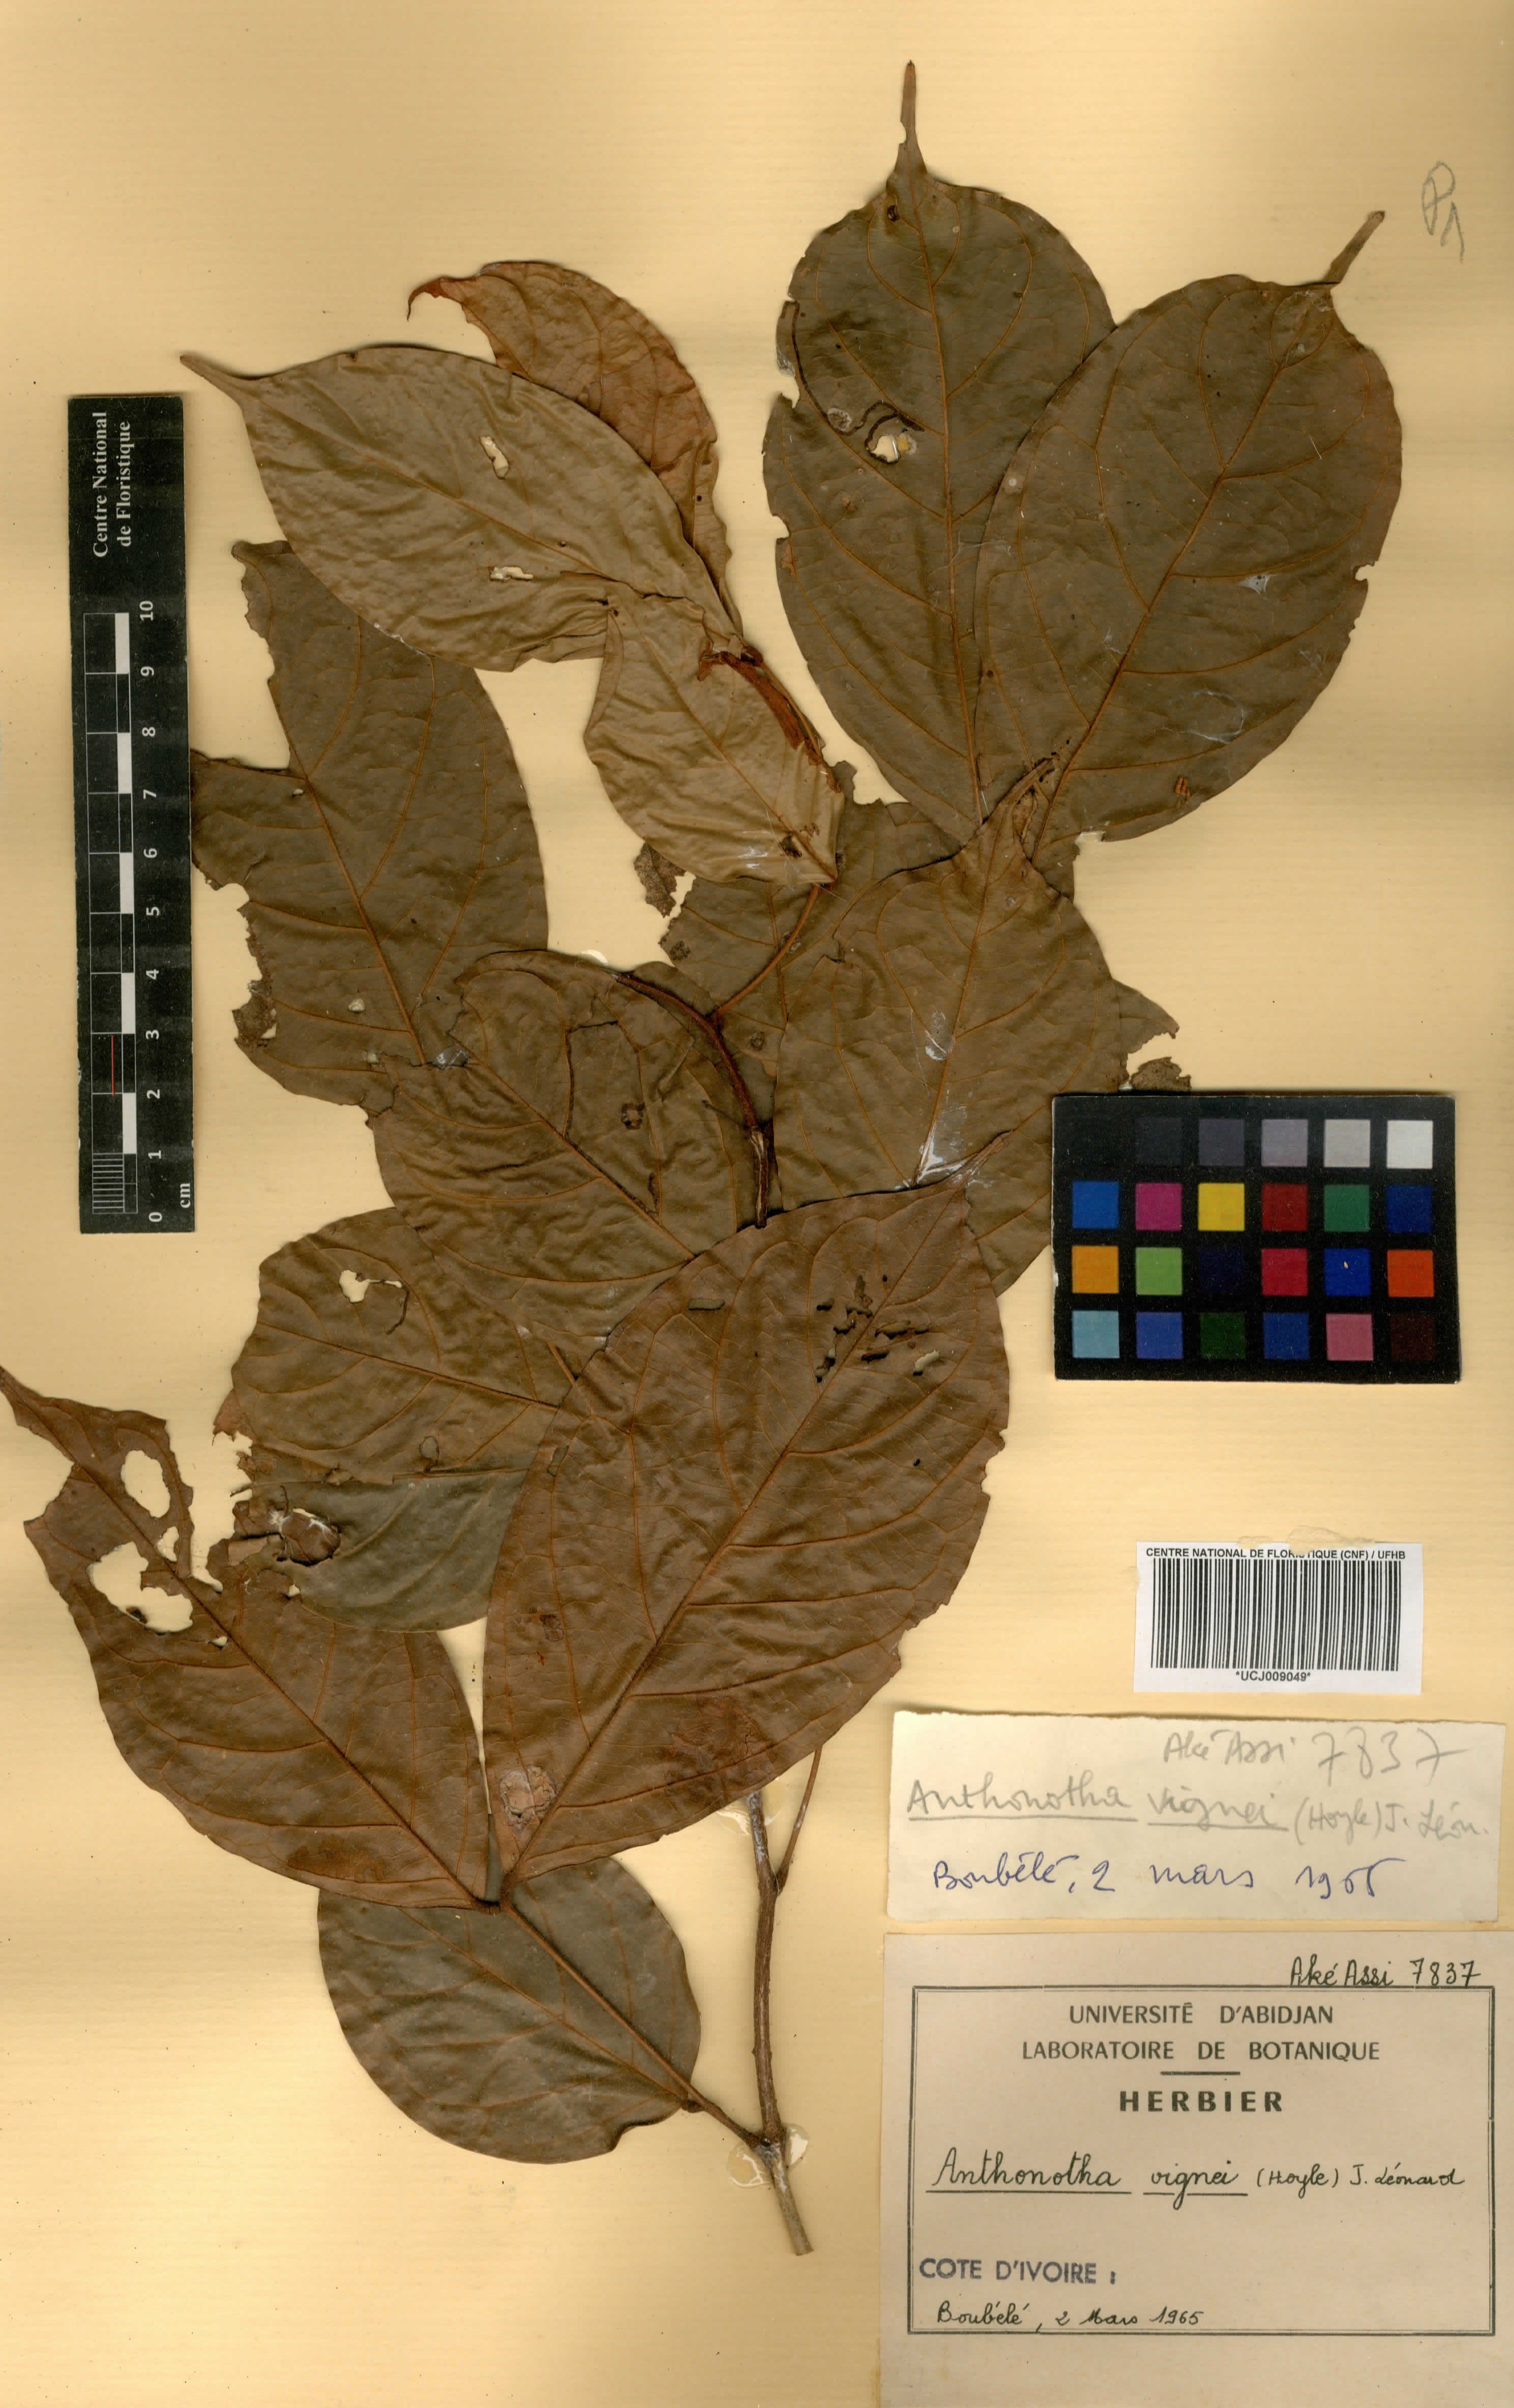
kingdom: Plantae
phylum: Tracheophyta
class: Magnoliopsida
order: Fabales
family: Fabaceae
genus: Englerodendron
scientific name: Englerodendron vignei
